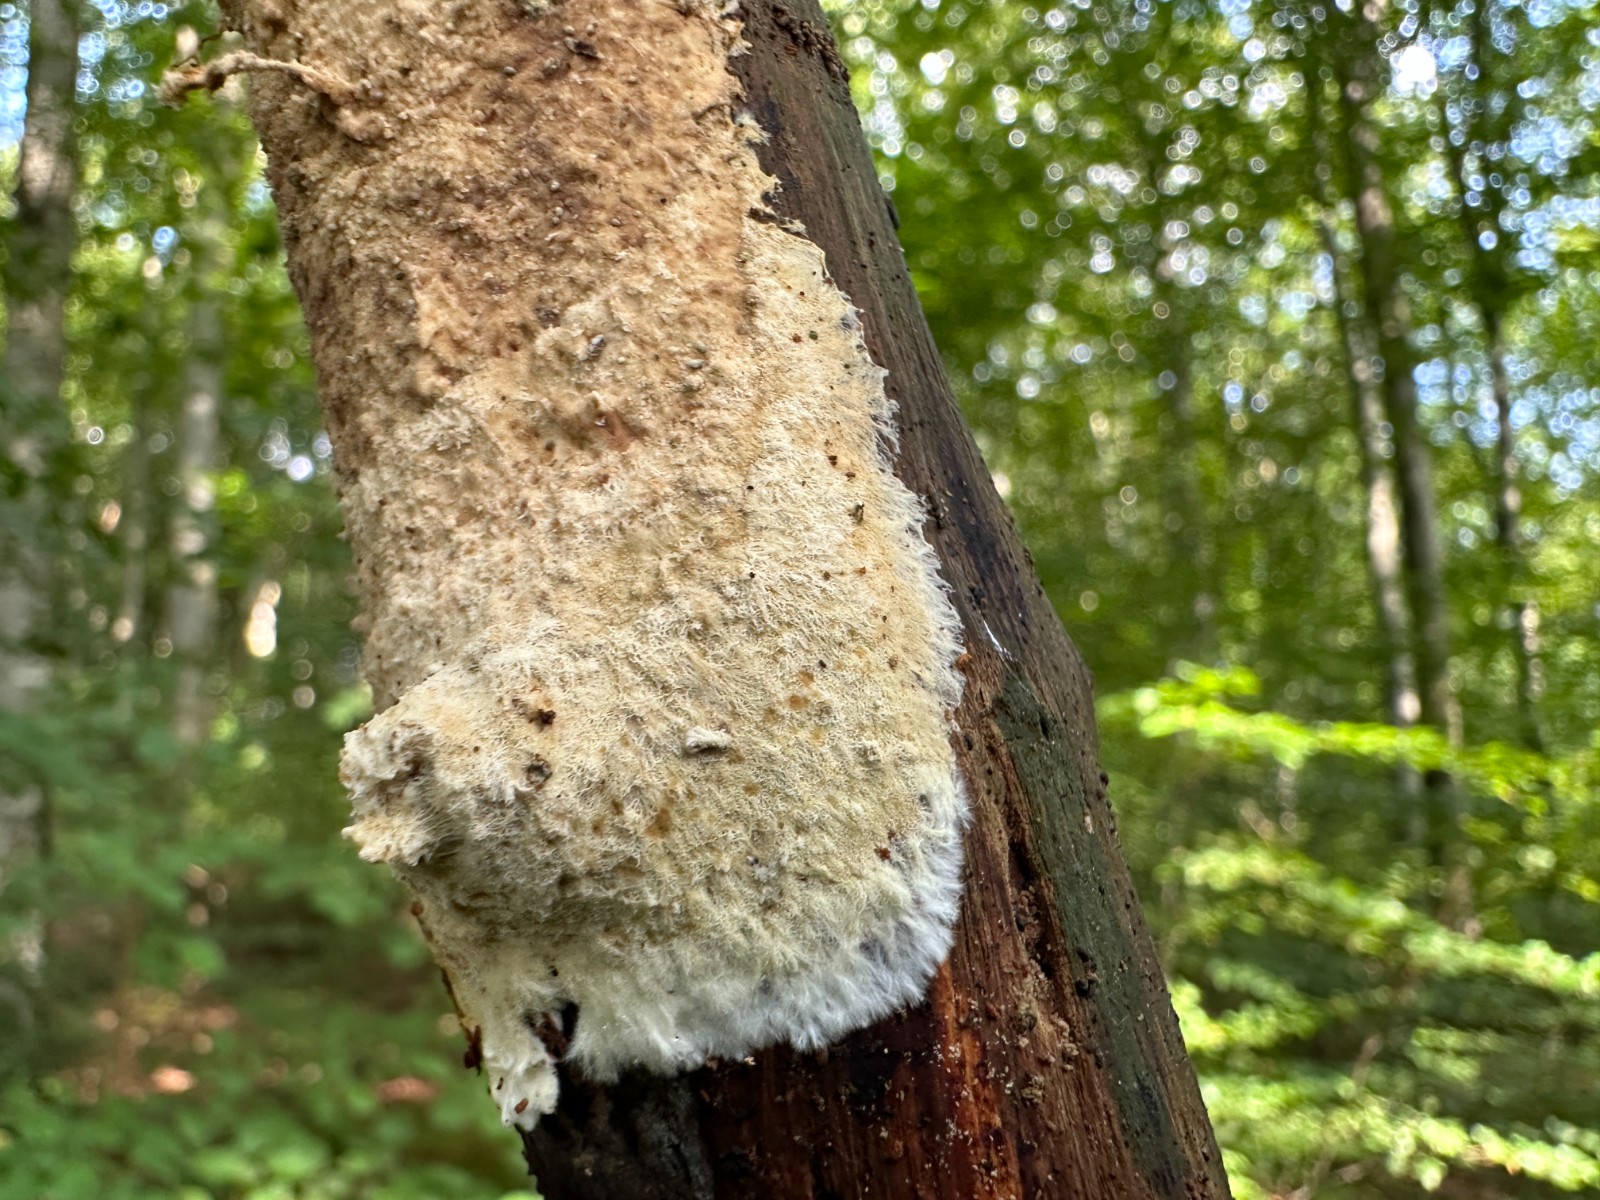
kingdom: Fungi
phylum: Basidiomycota
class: Agaricomycetes
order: Russulales
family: Xenasmataceae
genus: Xenasmatella
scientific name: Xenasmatella vaga
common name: svovl-strenghinde
